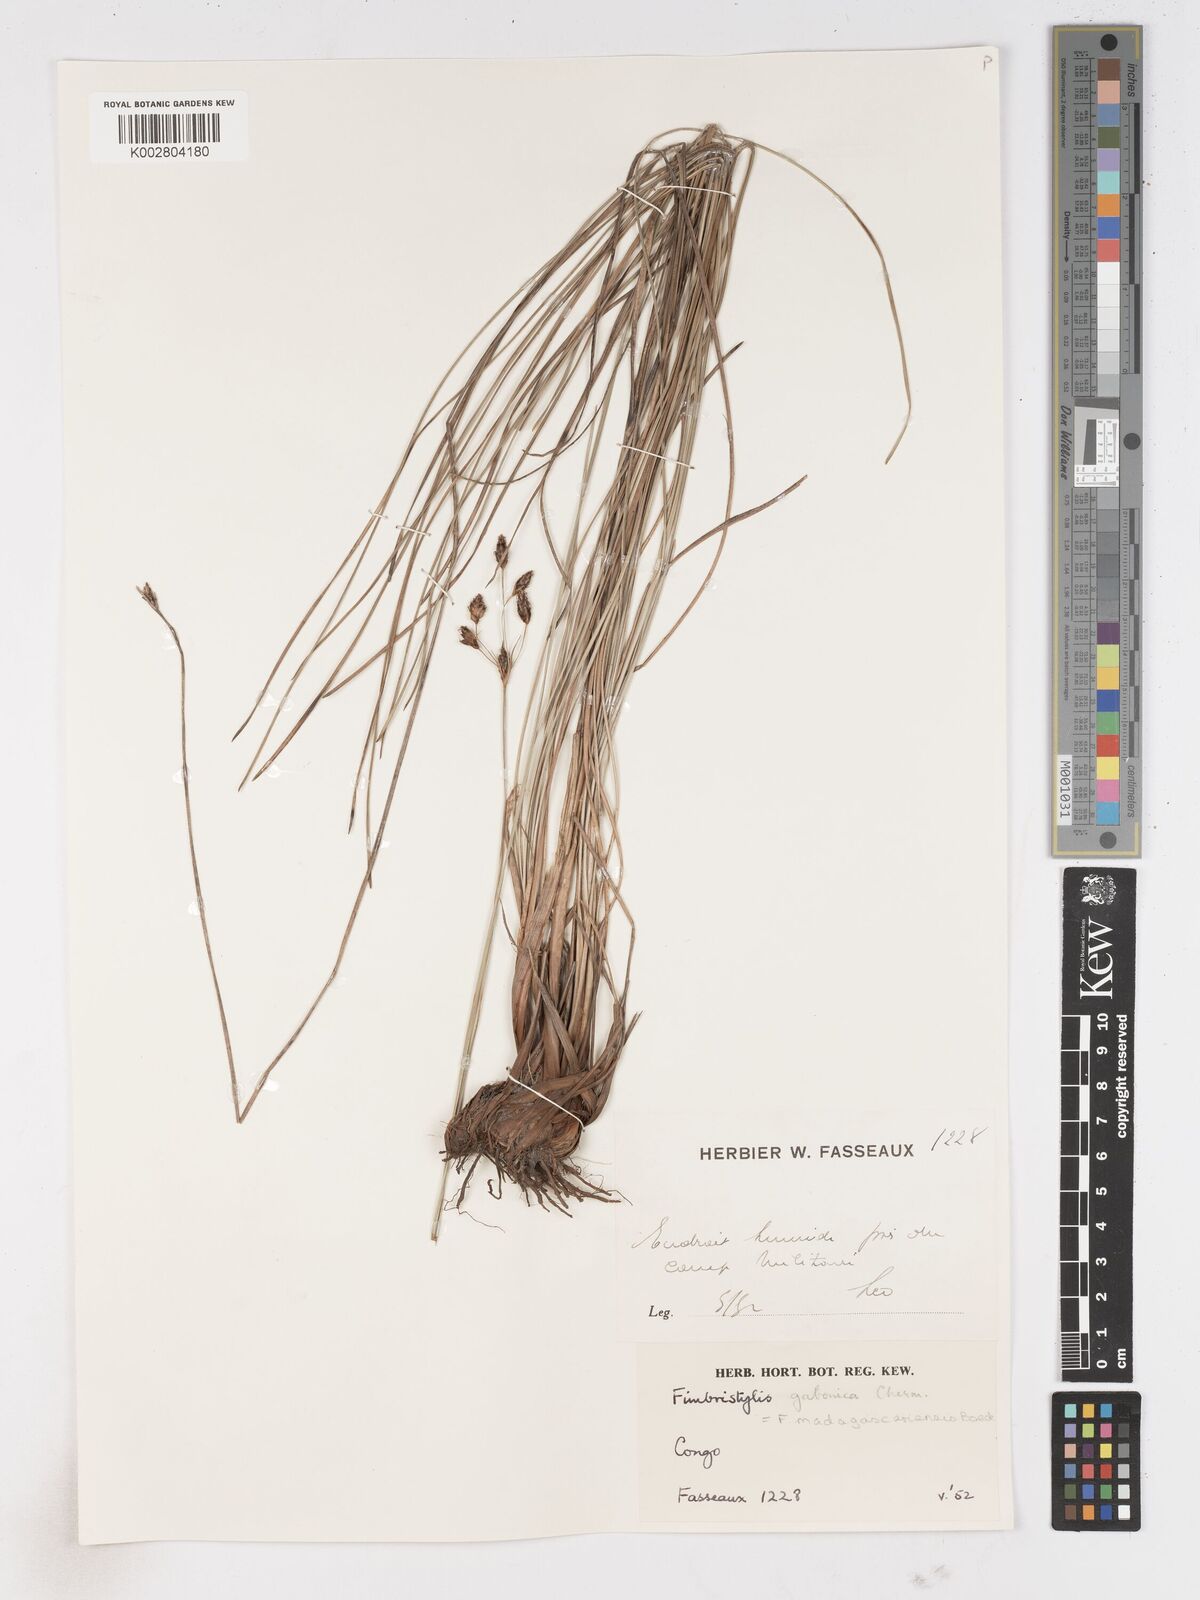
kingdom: Plantae
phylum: Tracheophyta
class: Liliopsida
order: Poales
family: Cyperaceae
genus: Fimbristylis
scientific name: Fimbristylis madagascariensis
